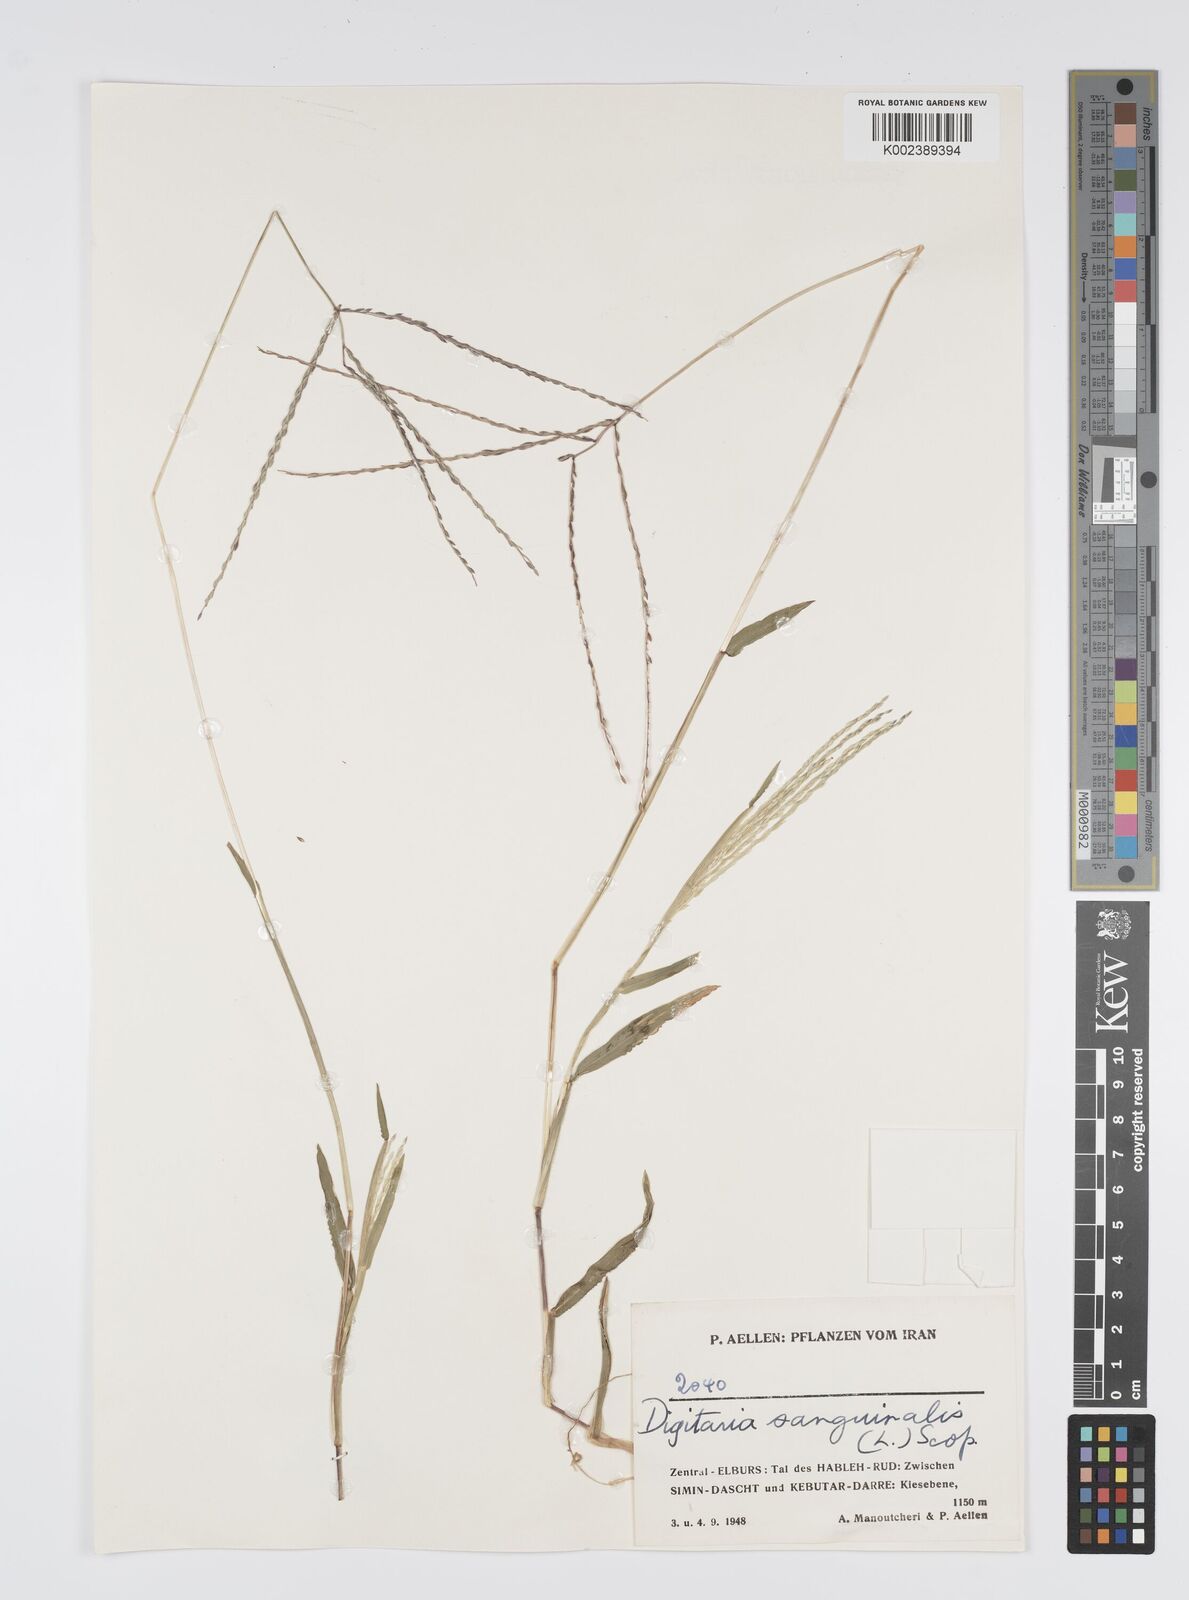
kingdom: Plantae
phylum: Tracheophyta
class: Liliopsida
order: Poales
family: Poaceae
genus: Digitaria
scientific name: Digitaria sanguinalis
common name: Hairy crabgrass
